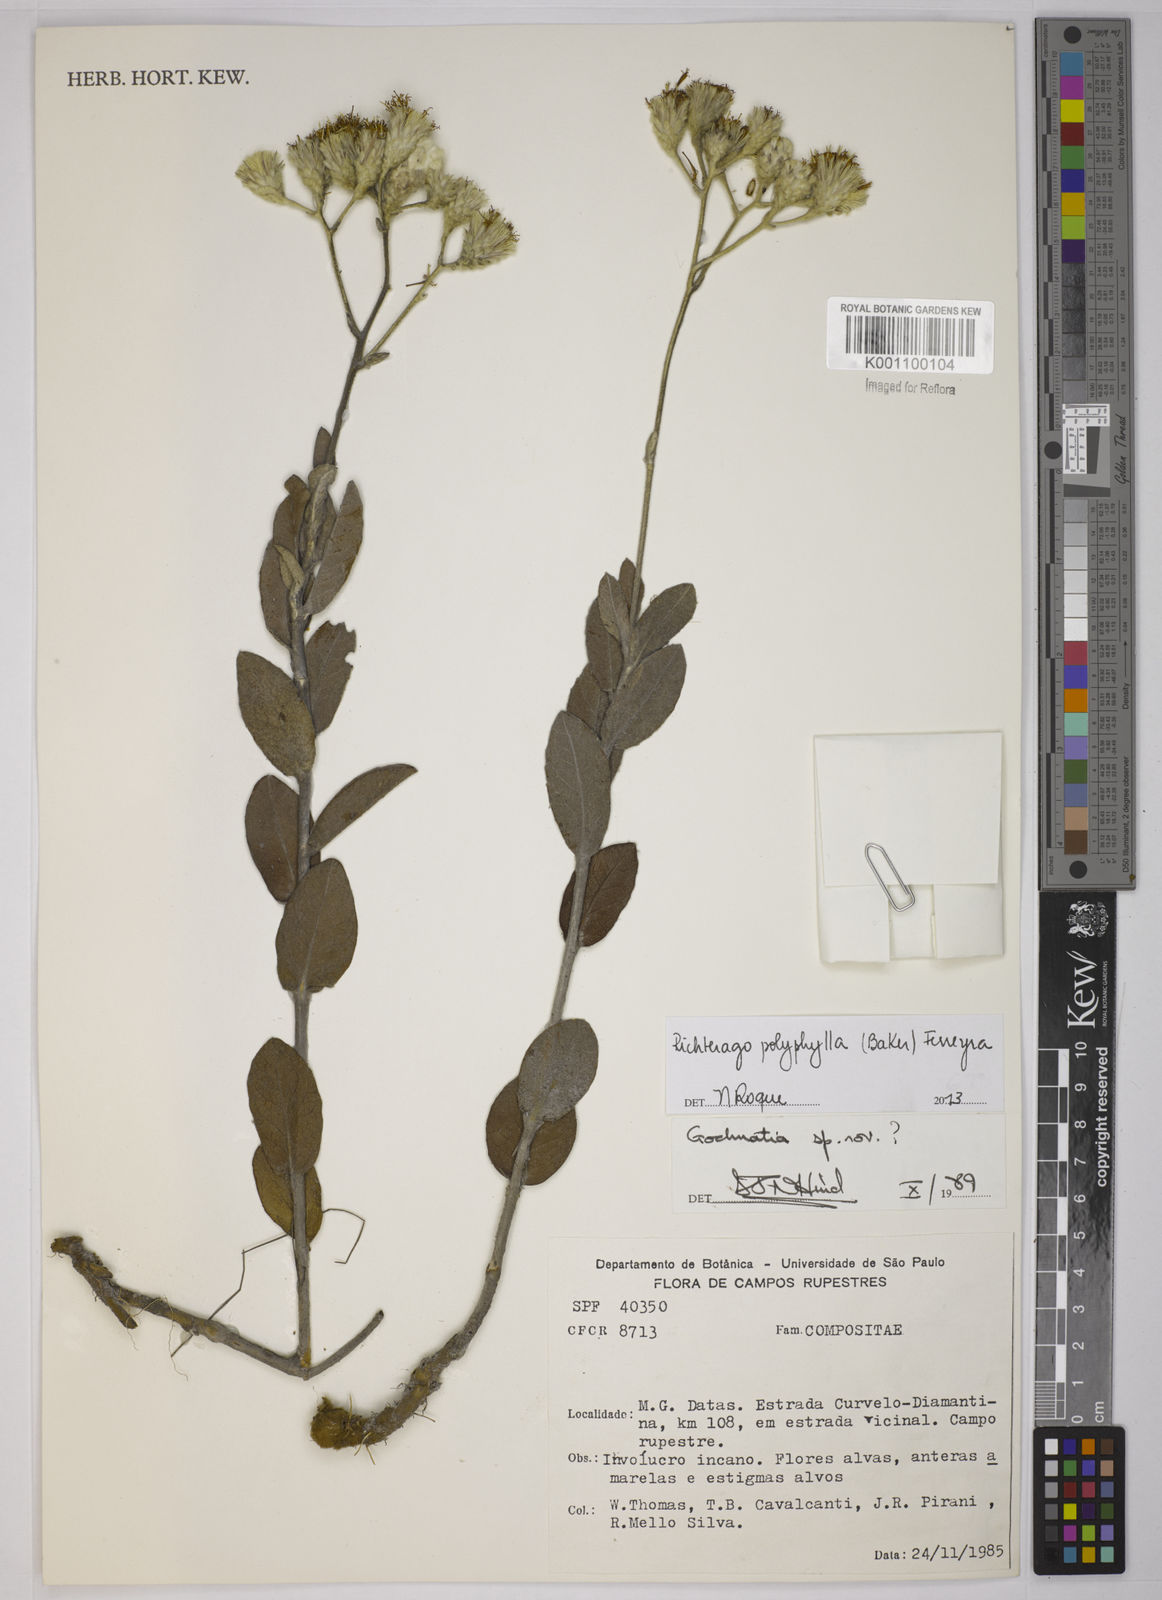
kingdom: Plantae
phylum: Tracheophyta
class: Magnoliopsida
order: Asterales
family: Asteraceae
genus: Richterago
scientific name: Richterago polyphylla
